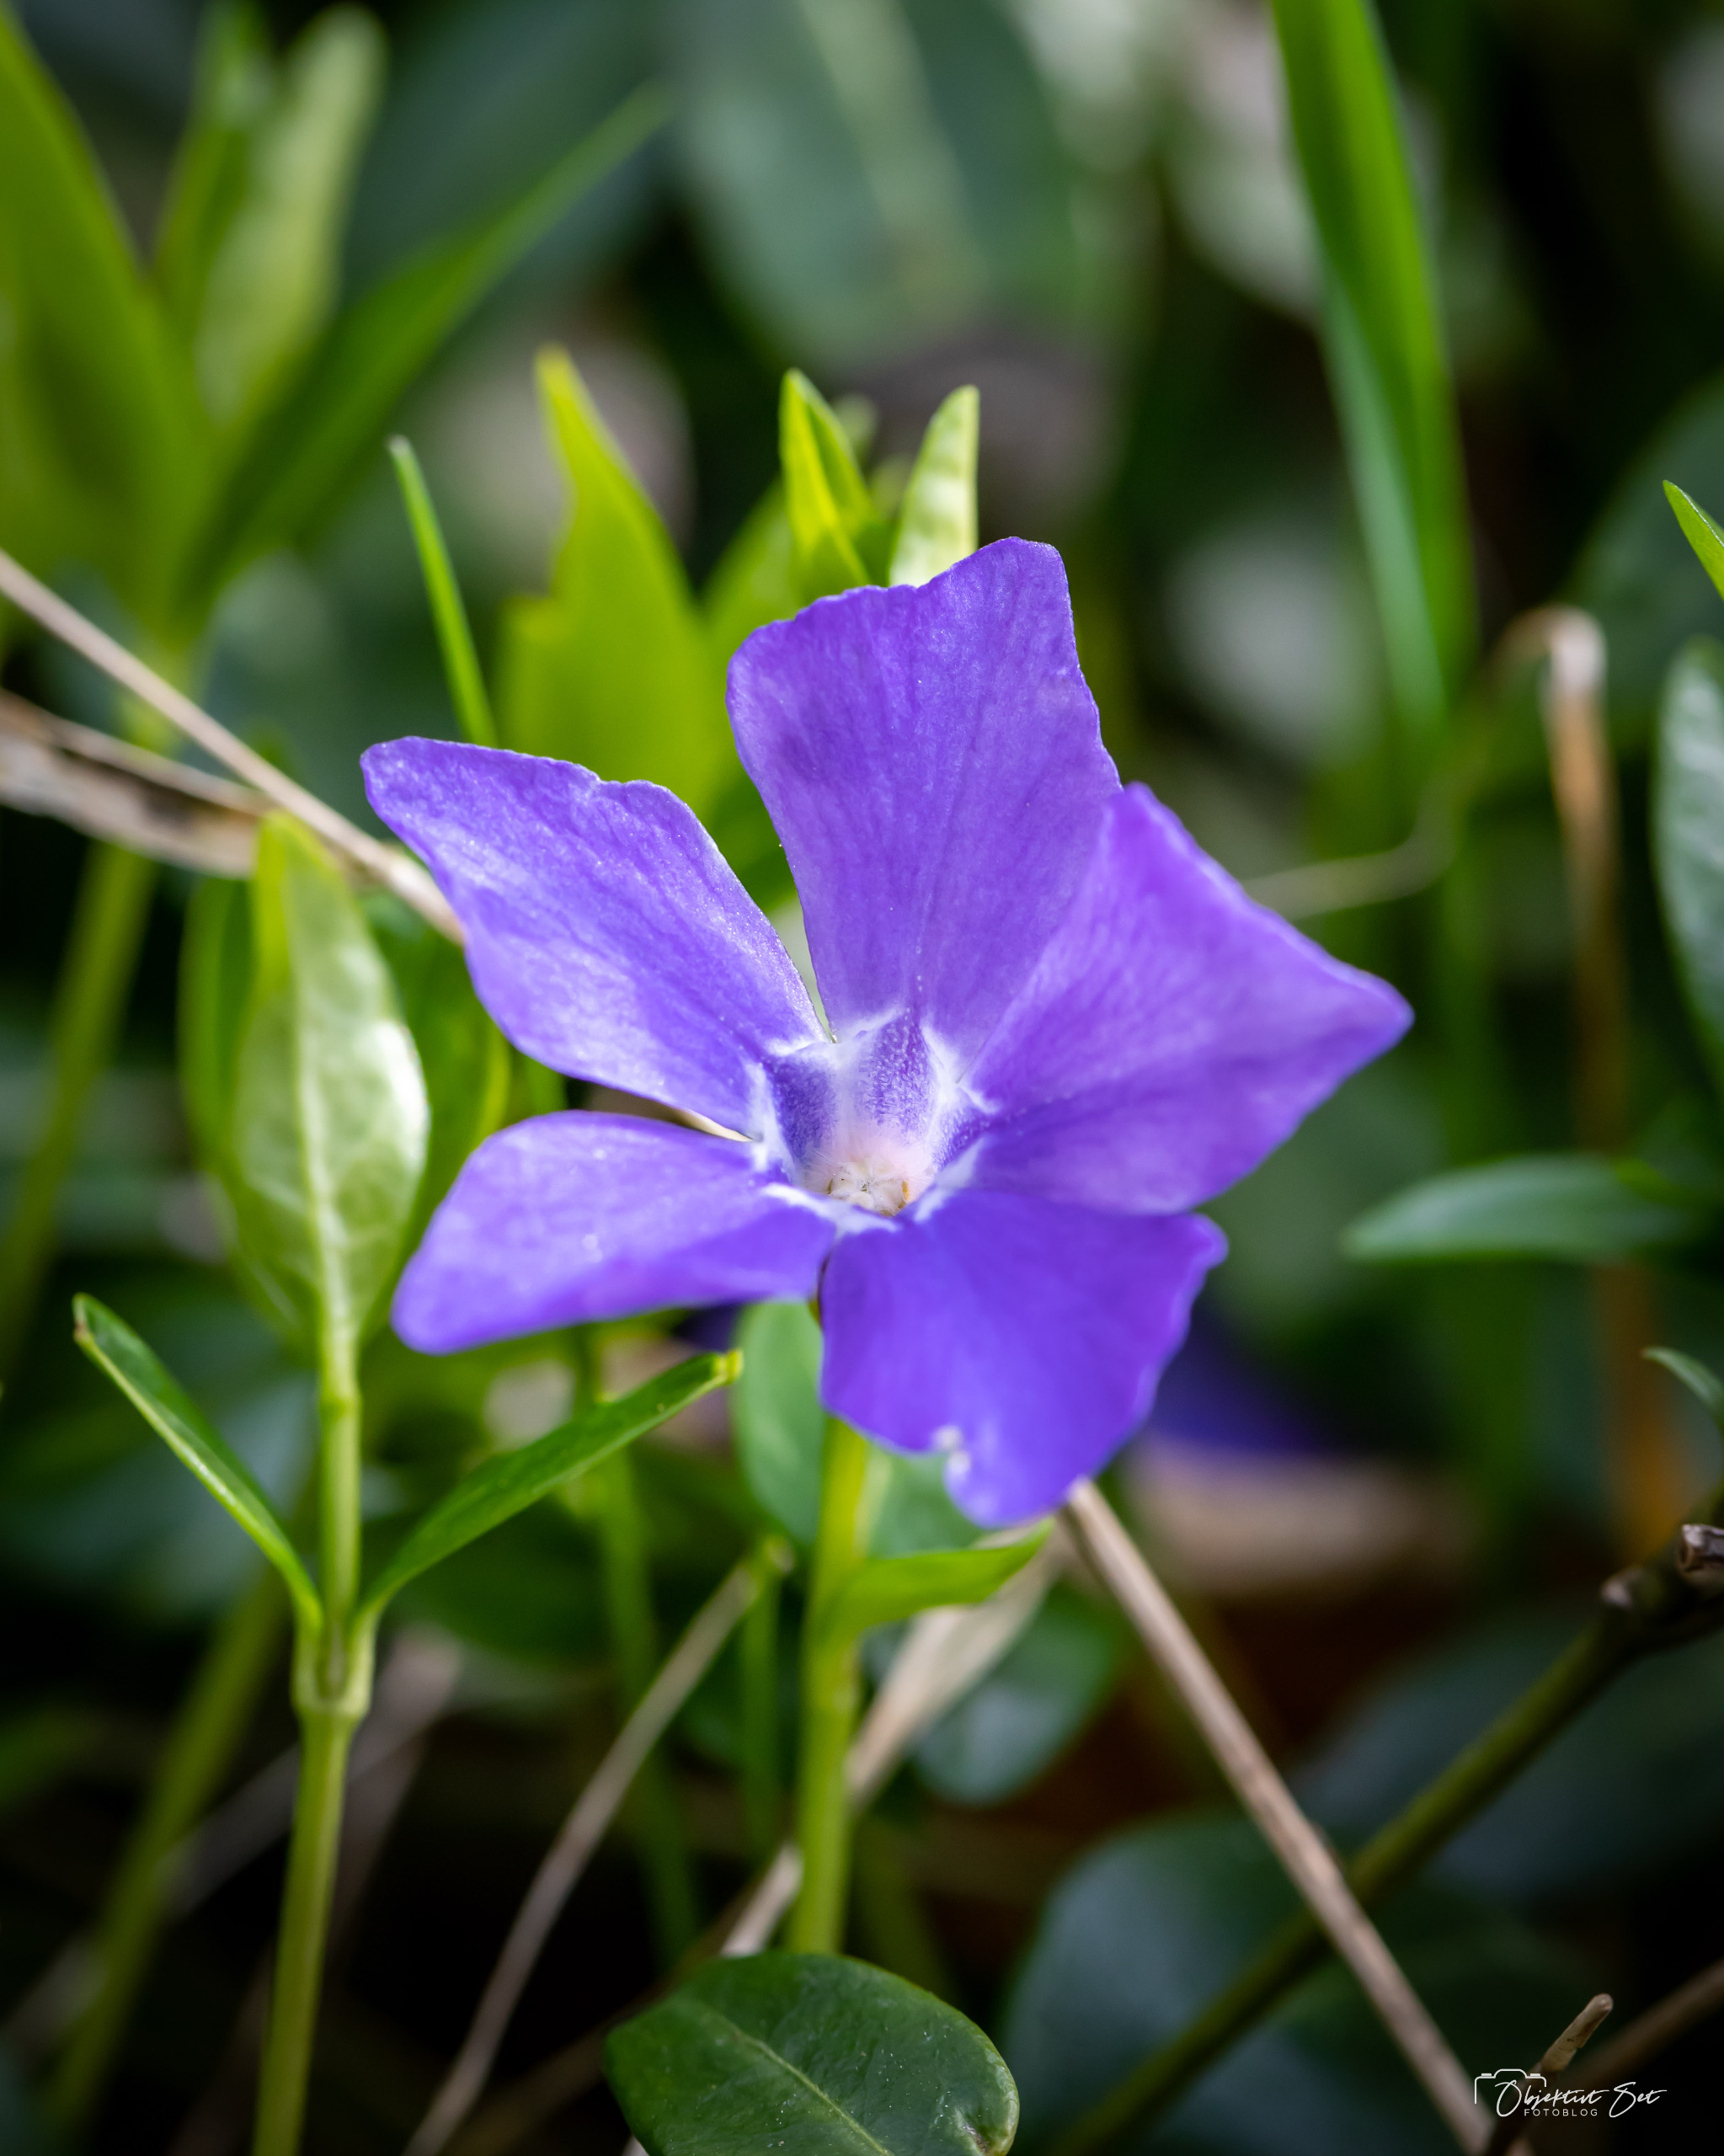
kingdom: Plantae
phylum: Tracheophyta
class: Magnoliopsida
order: Gentianales
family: Apocynaceae
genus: Vinca
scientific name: Vinca minor
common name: Liden singrøn
